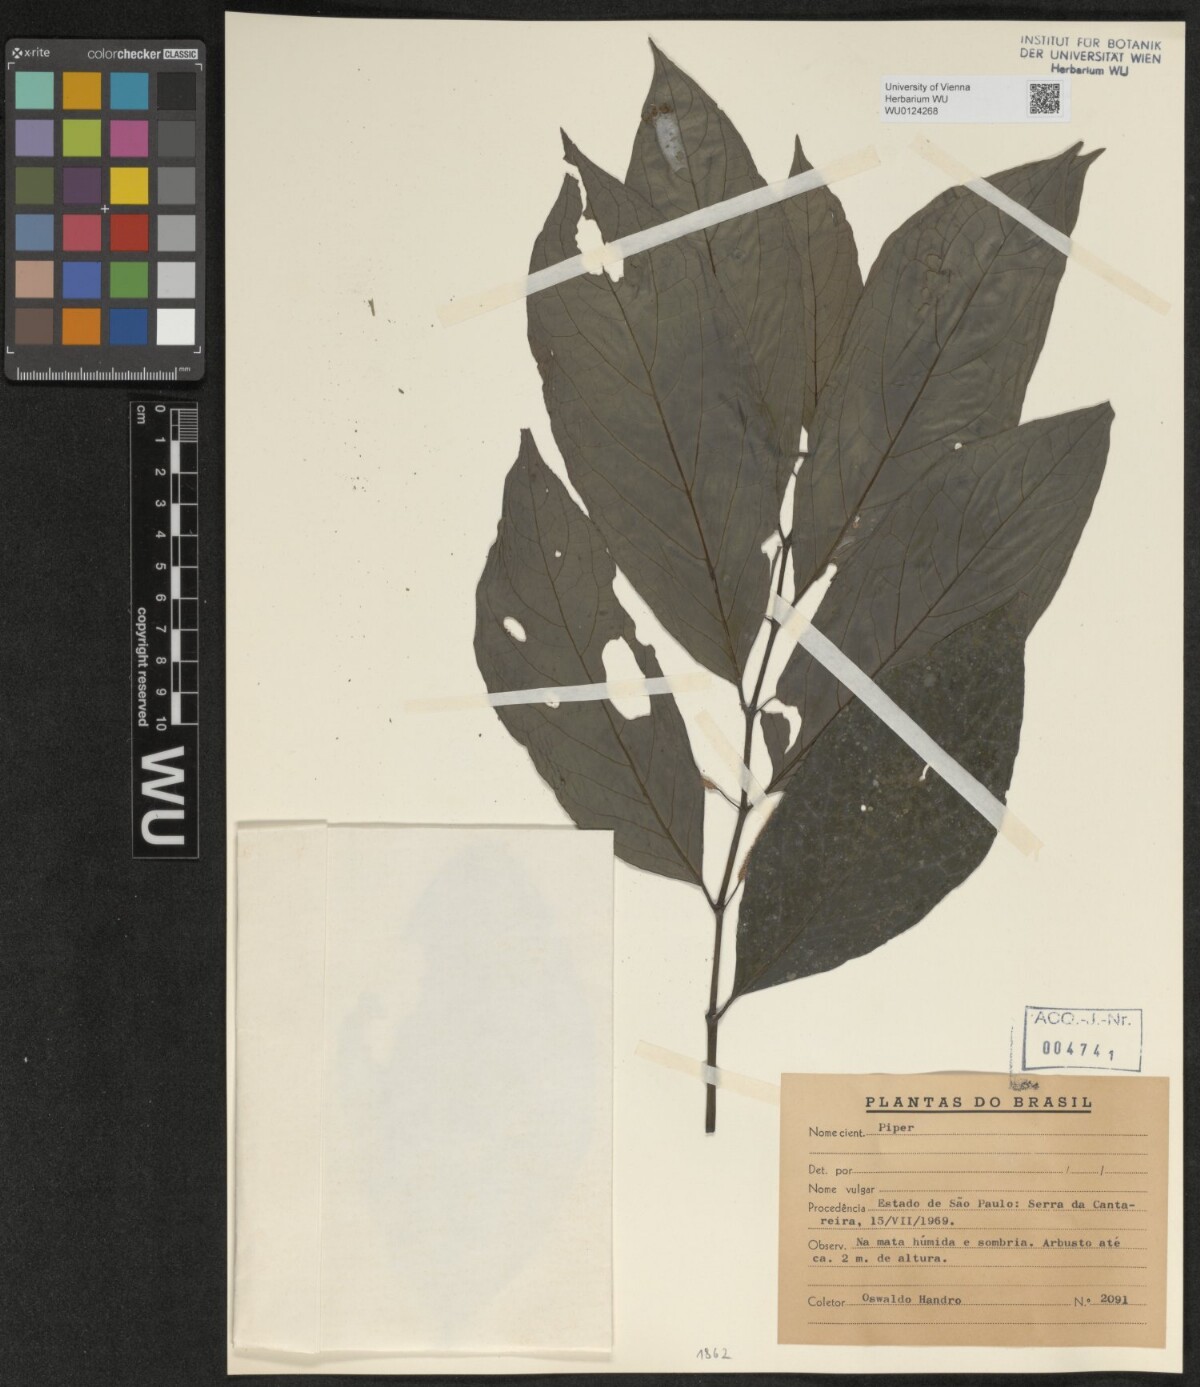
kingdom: Plantae
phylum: Tracheophyta
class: Magnoliopsida
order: Piperales
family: Piperaceae
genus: Piper
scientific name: Piper
